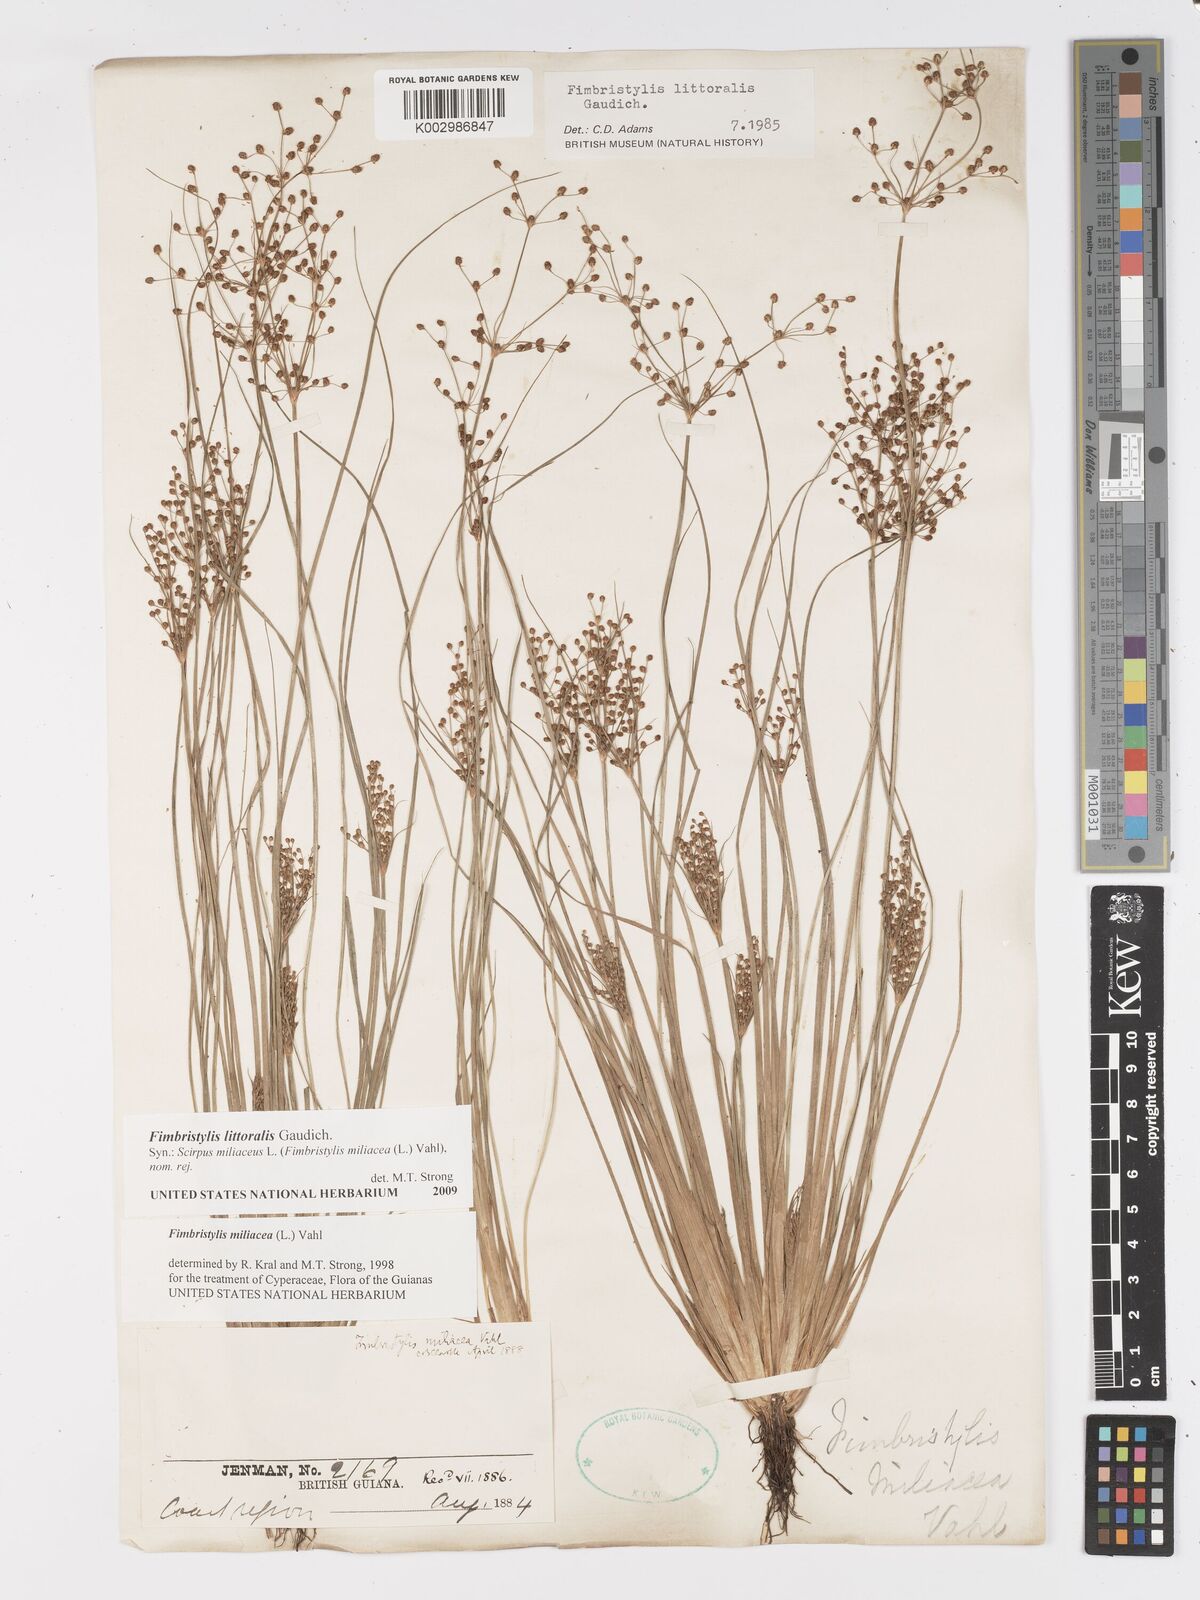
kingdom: Plantae
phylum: Tracheophyta
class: Liliopsida
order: Poales
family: Cyperaceae
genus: Fimbristylis
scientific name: Fimbristylis littoralis
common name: Fimbry
